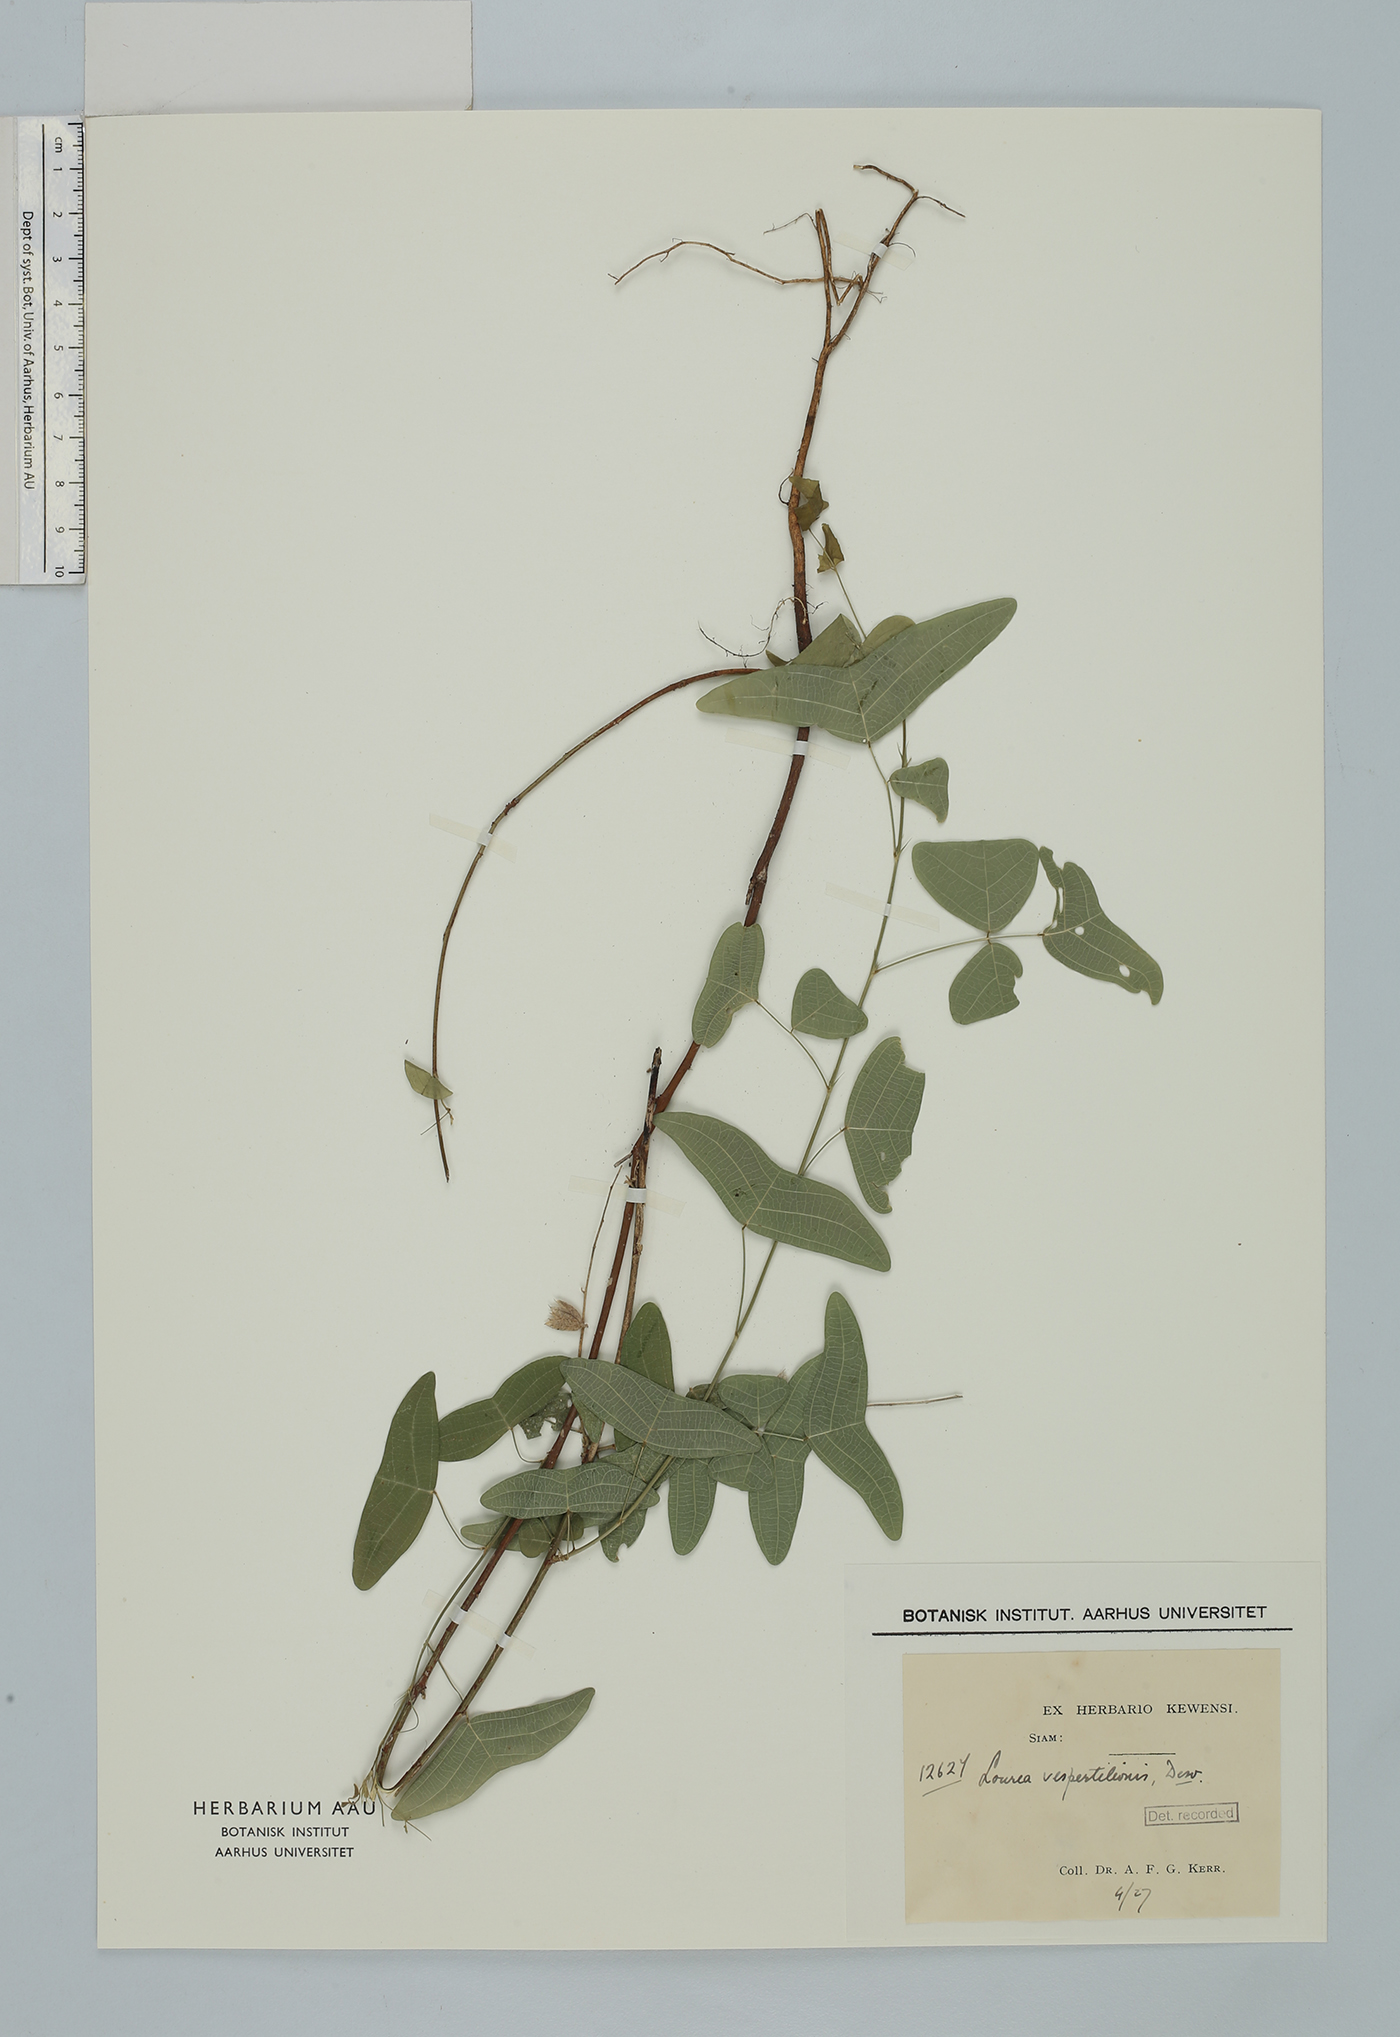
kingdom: Plantae
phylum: Tracheophyta
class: Magnoliopsida
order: Fabales
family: Fabaceae
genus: Christia
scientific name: Christia vespertilionis
